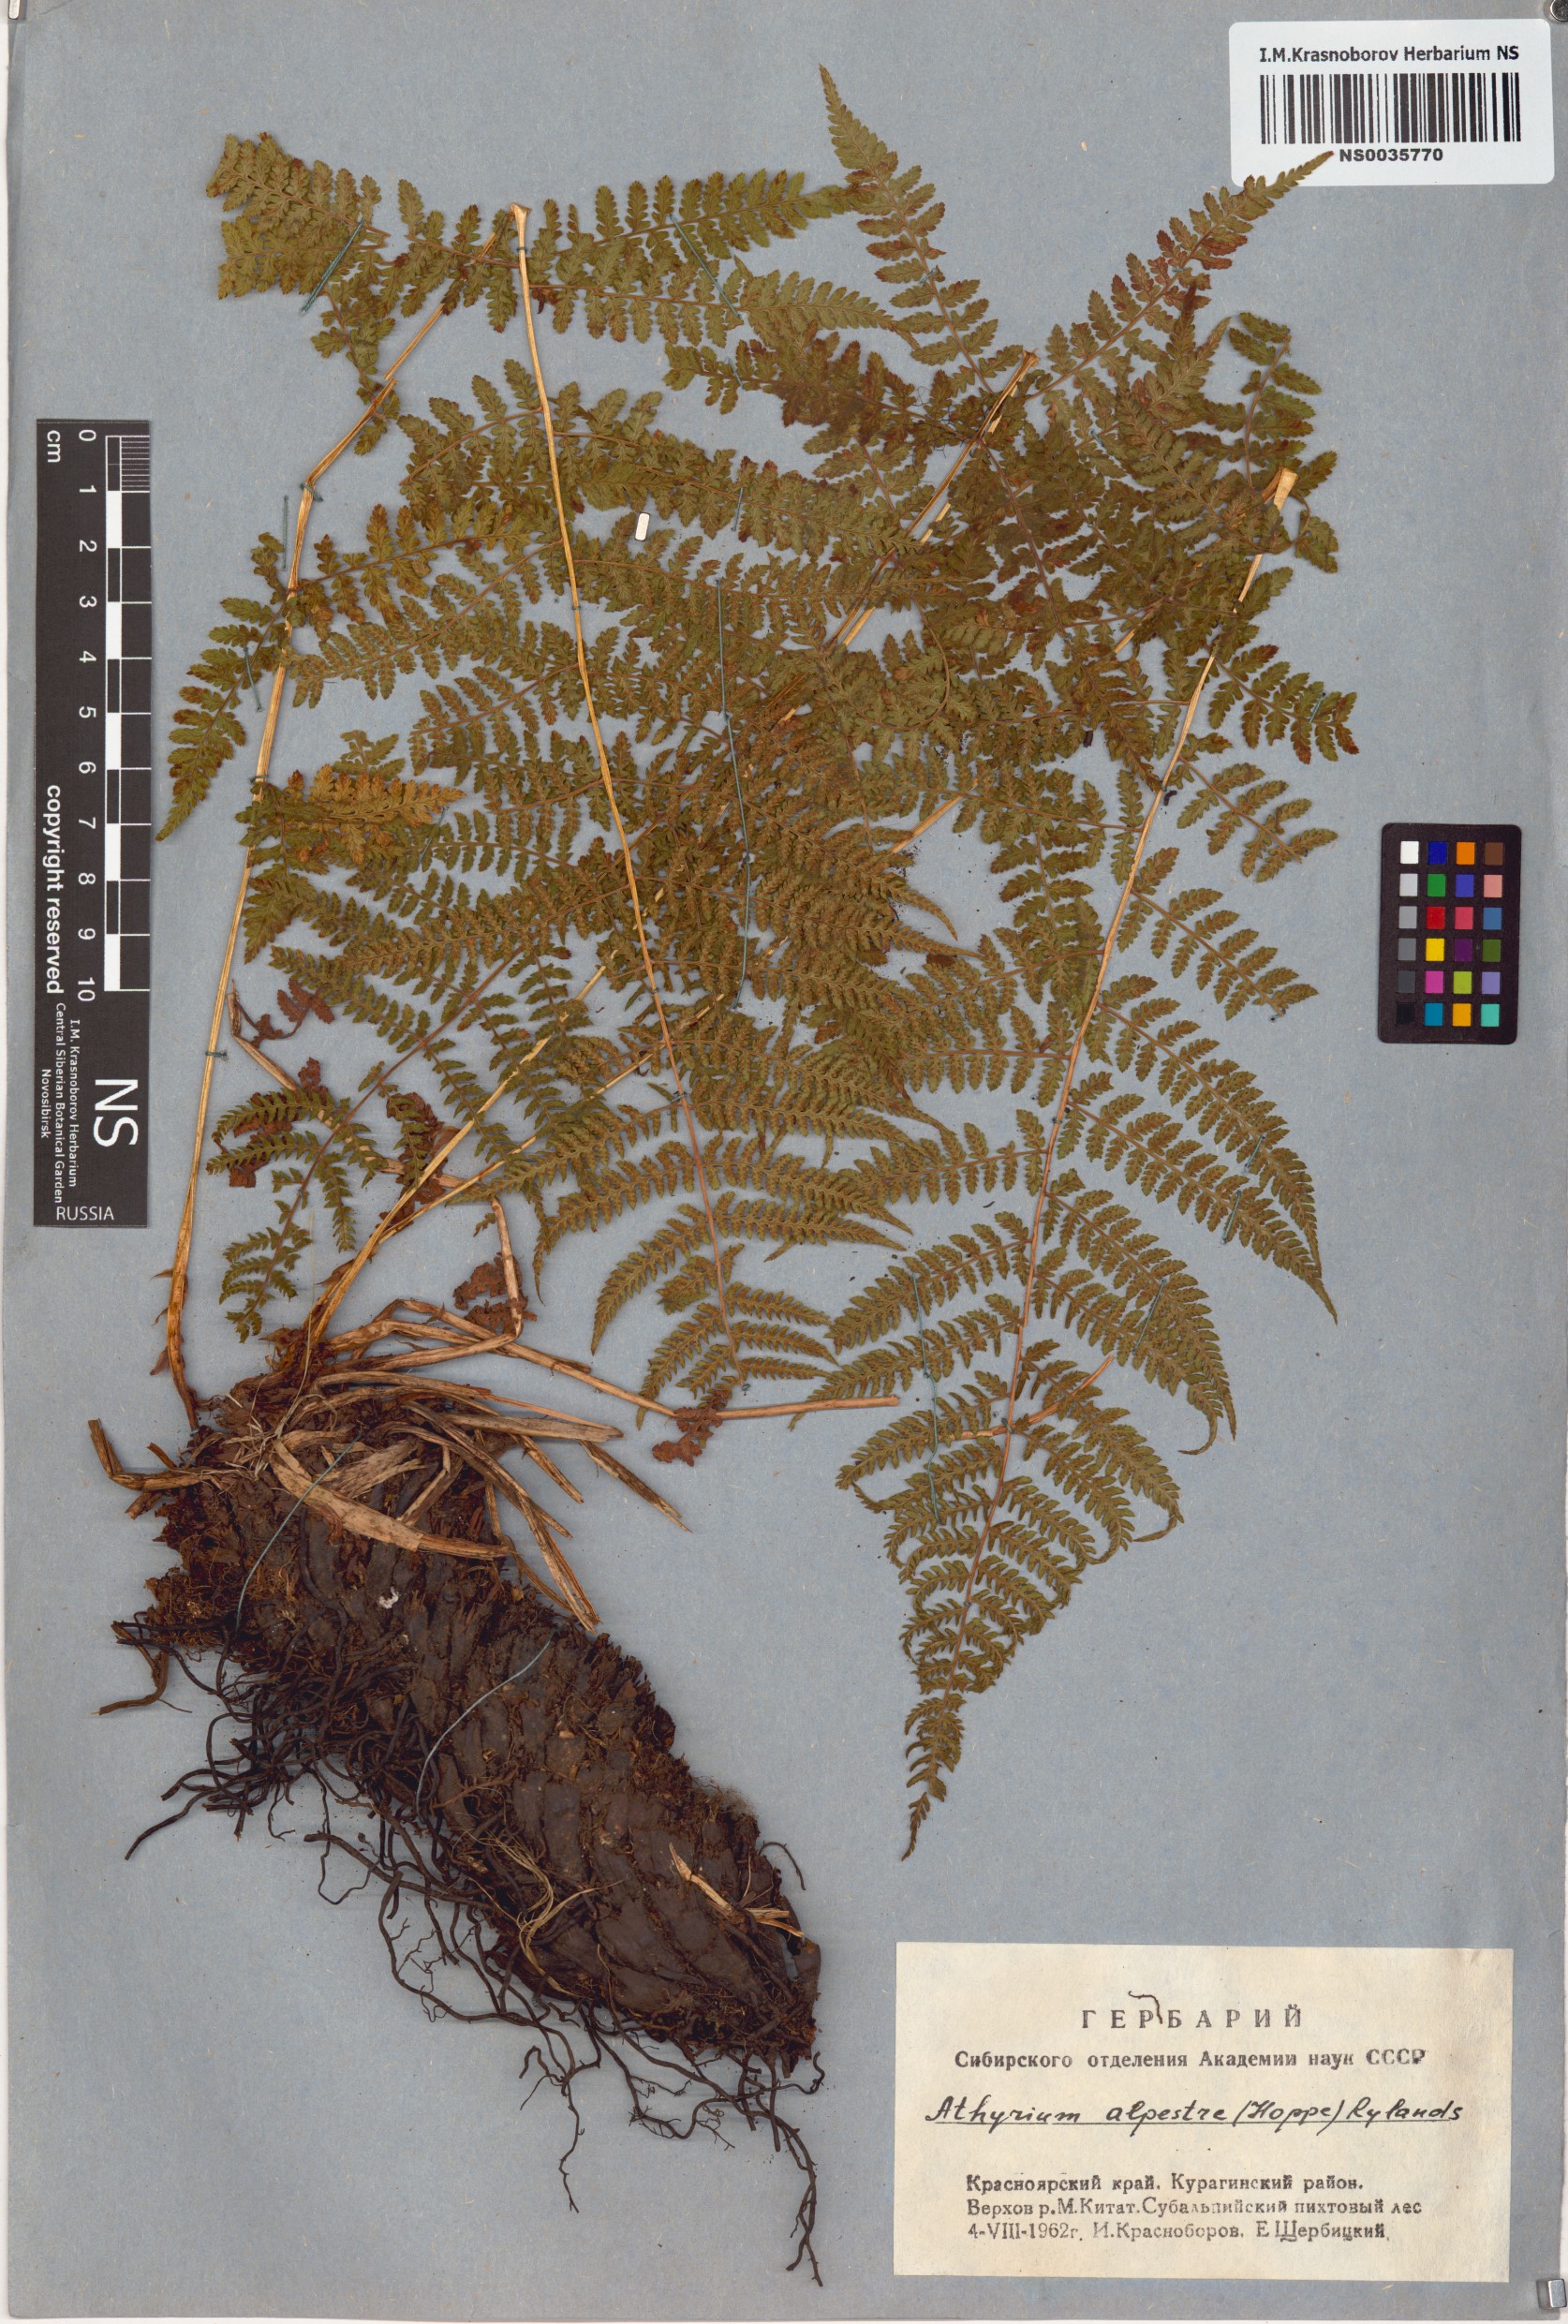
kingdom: Plantae
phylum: Tracheophyta
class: Polypodiopsida
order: Polypodiales
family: Athyriaceae
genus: Pseudathyrium
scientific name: Pseudathyrium alpestre
